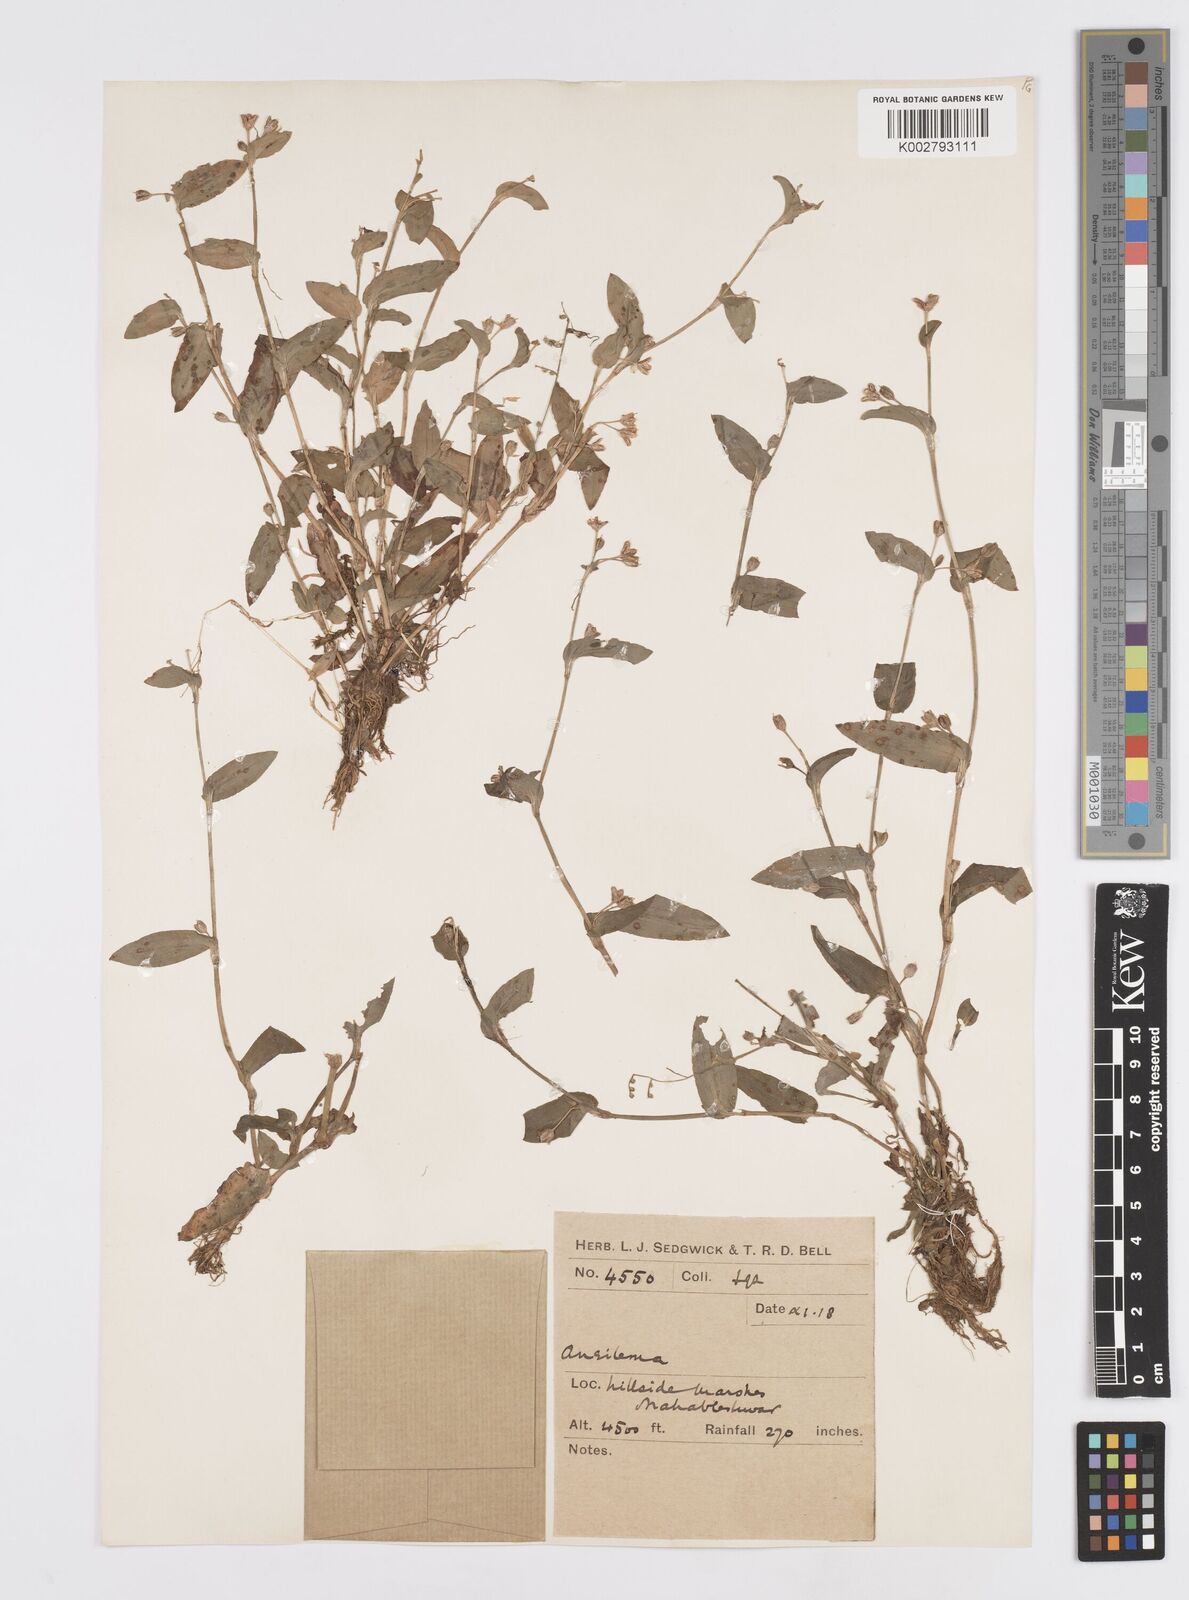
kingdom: Plantae
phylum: Tracheophyta
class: Liliopsida
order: Commelinales
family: Commelinaceae
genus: Murdannia
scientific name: Murdannia versicolor
